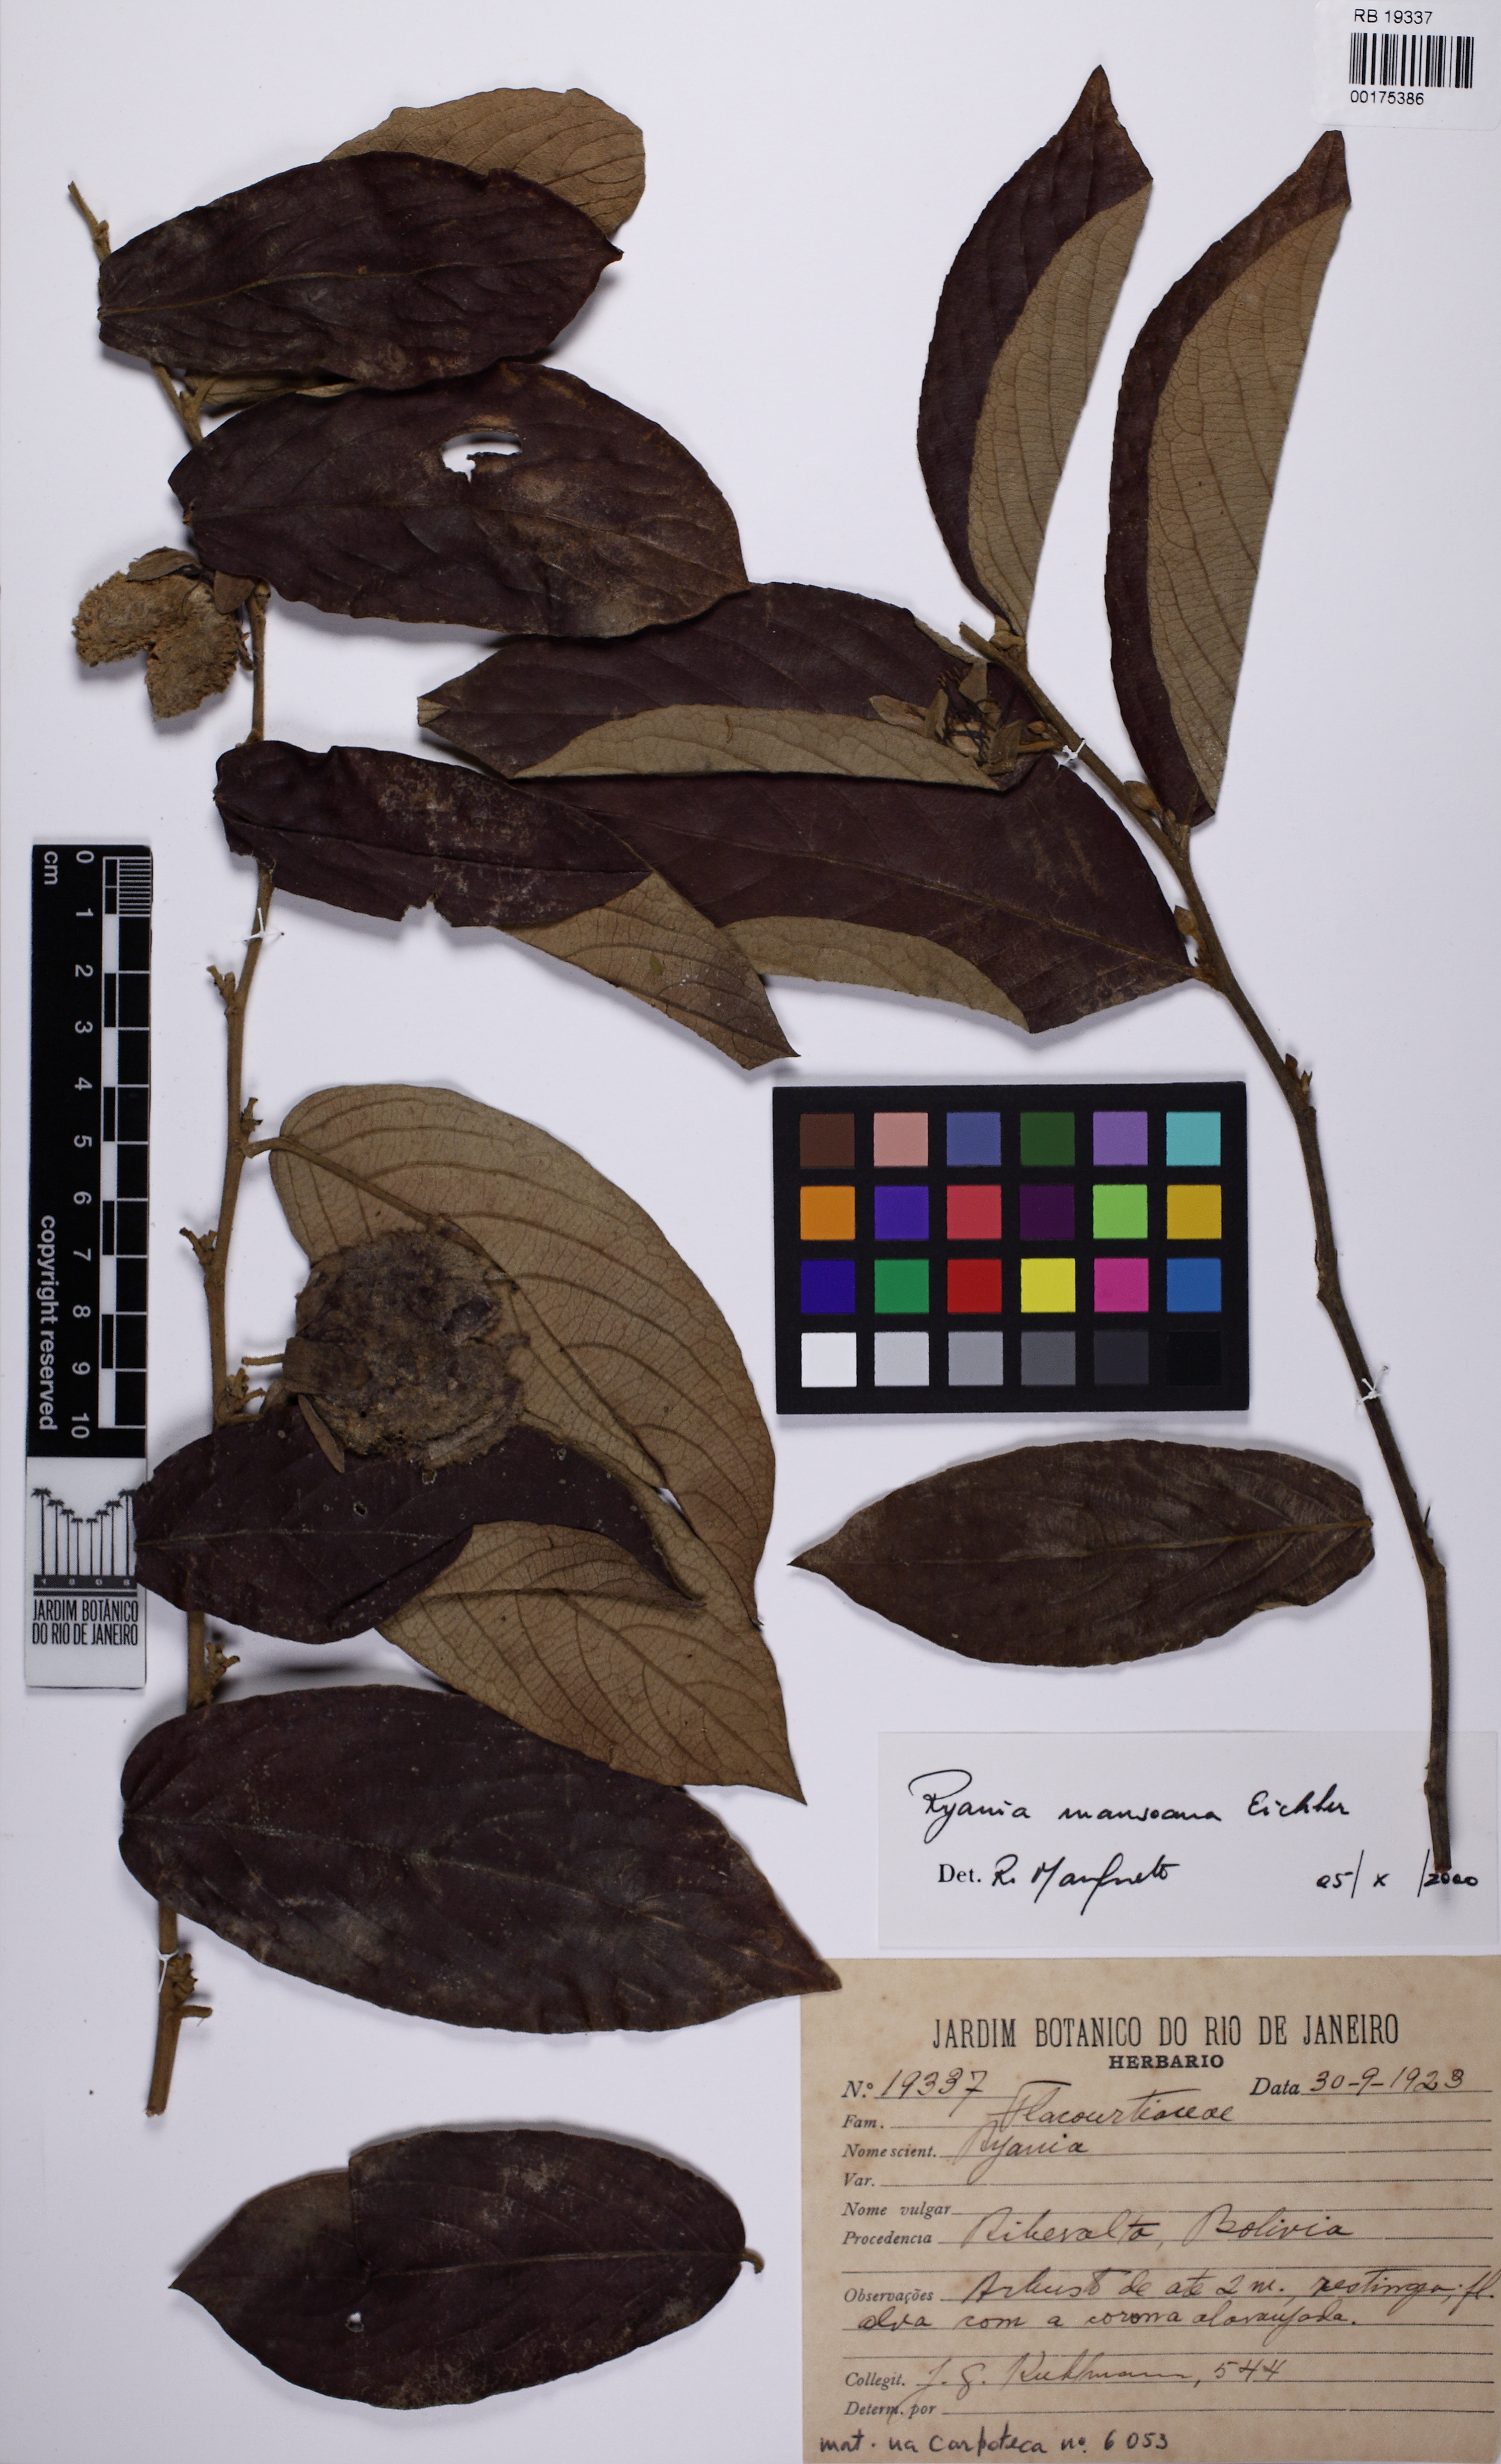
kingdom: Plantae
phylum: Tracheophyta
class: Magnoliopsida
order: Malpighiales
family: Salicaceae
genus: Ryania
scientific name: Ryania mansoana
